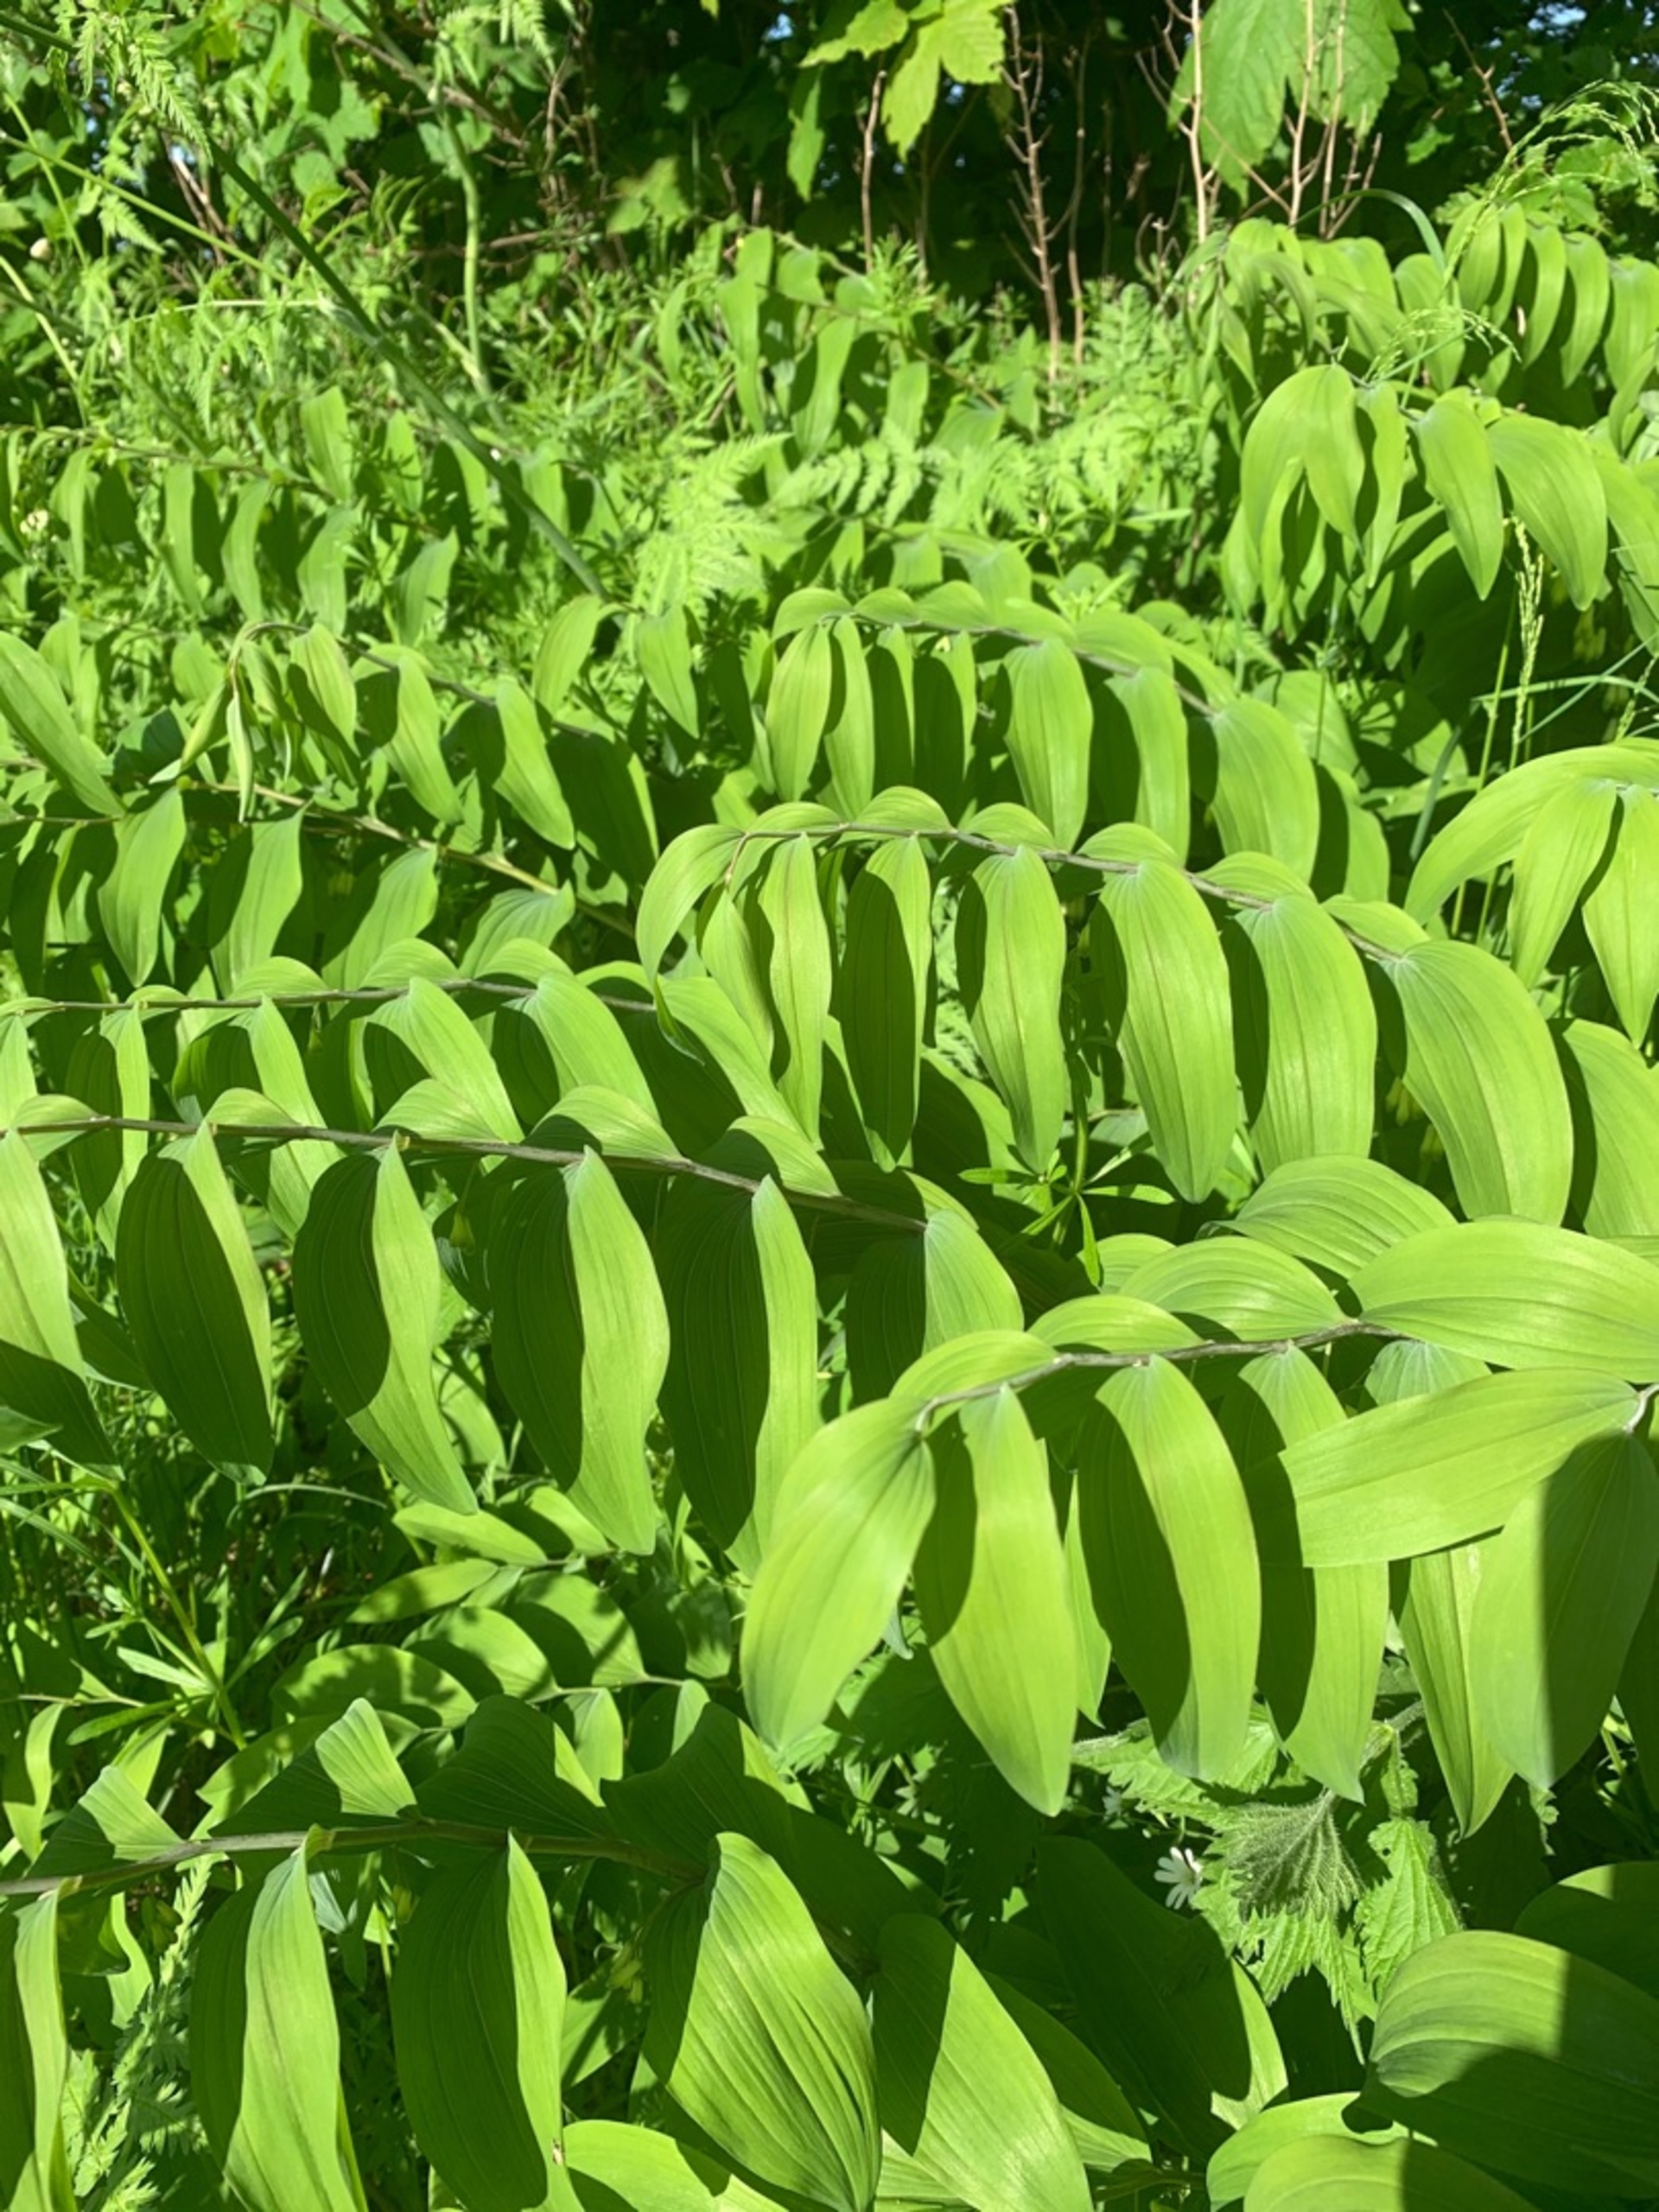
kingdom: Plantae
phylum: Tracheophyta
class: Liliopsida
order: Asparagales
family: Asparagaceae
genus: Polygonatum
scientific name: Polygonatum multiflorum
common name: Stor konval
